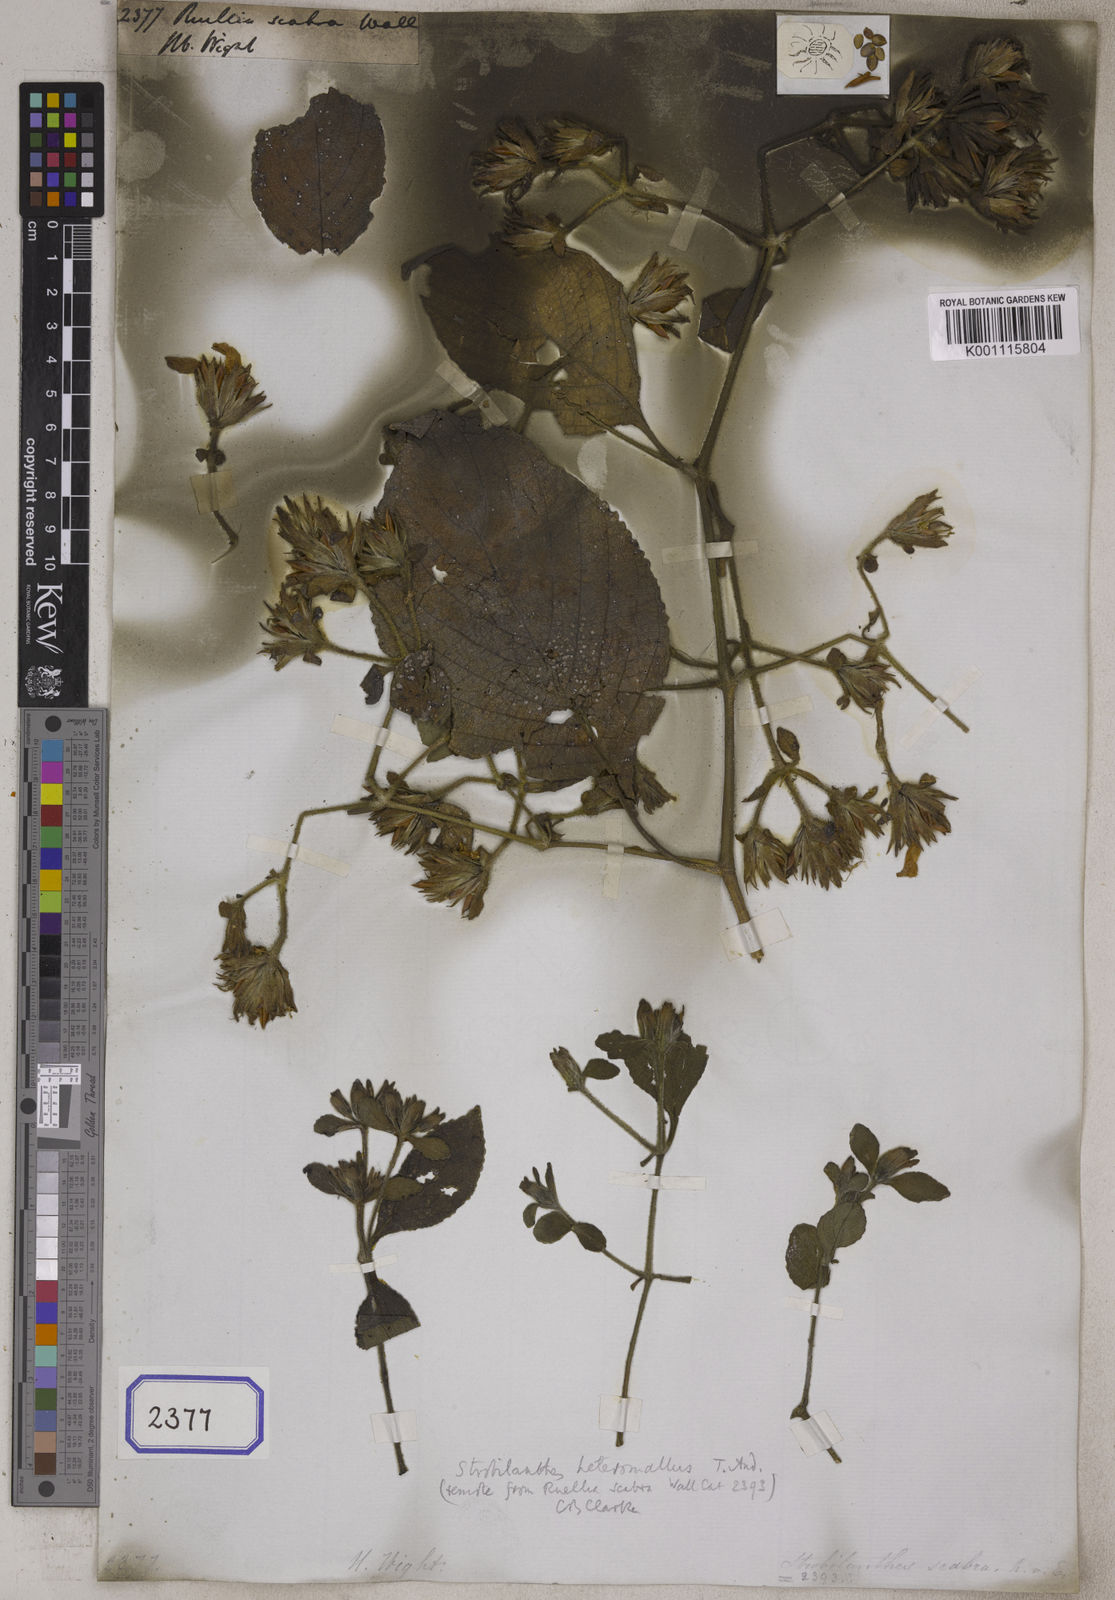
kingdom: Plantae
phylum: Tracheophyta
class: Magnoliopsida
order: Lamiales
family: Acanthaceae
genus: Ruellia
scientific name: Ruellia
